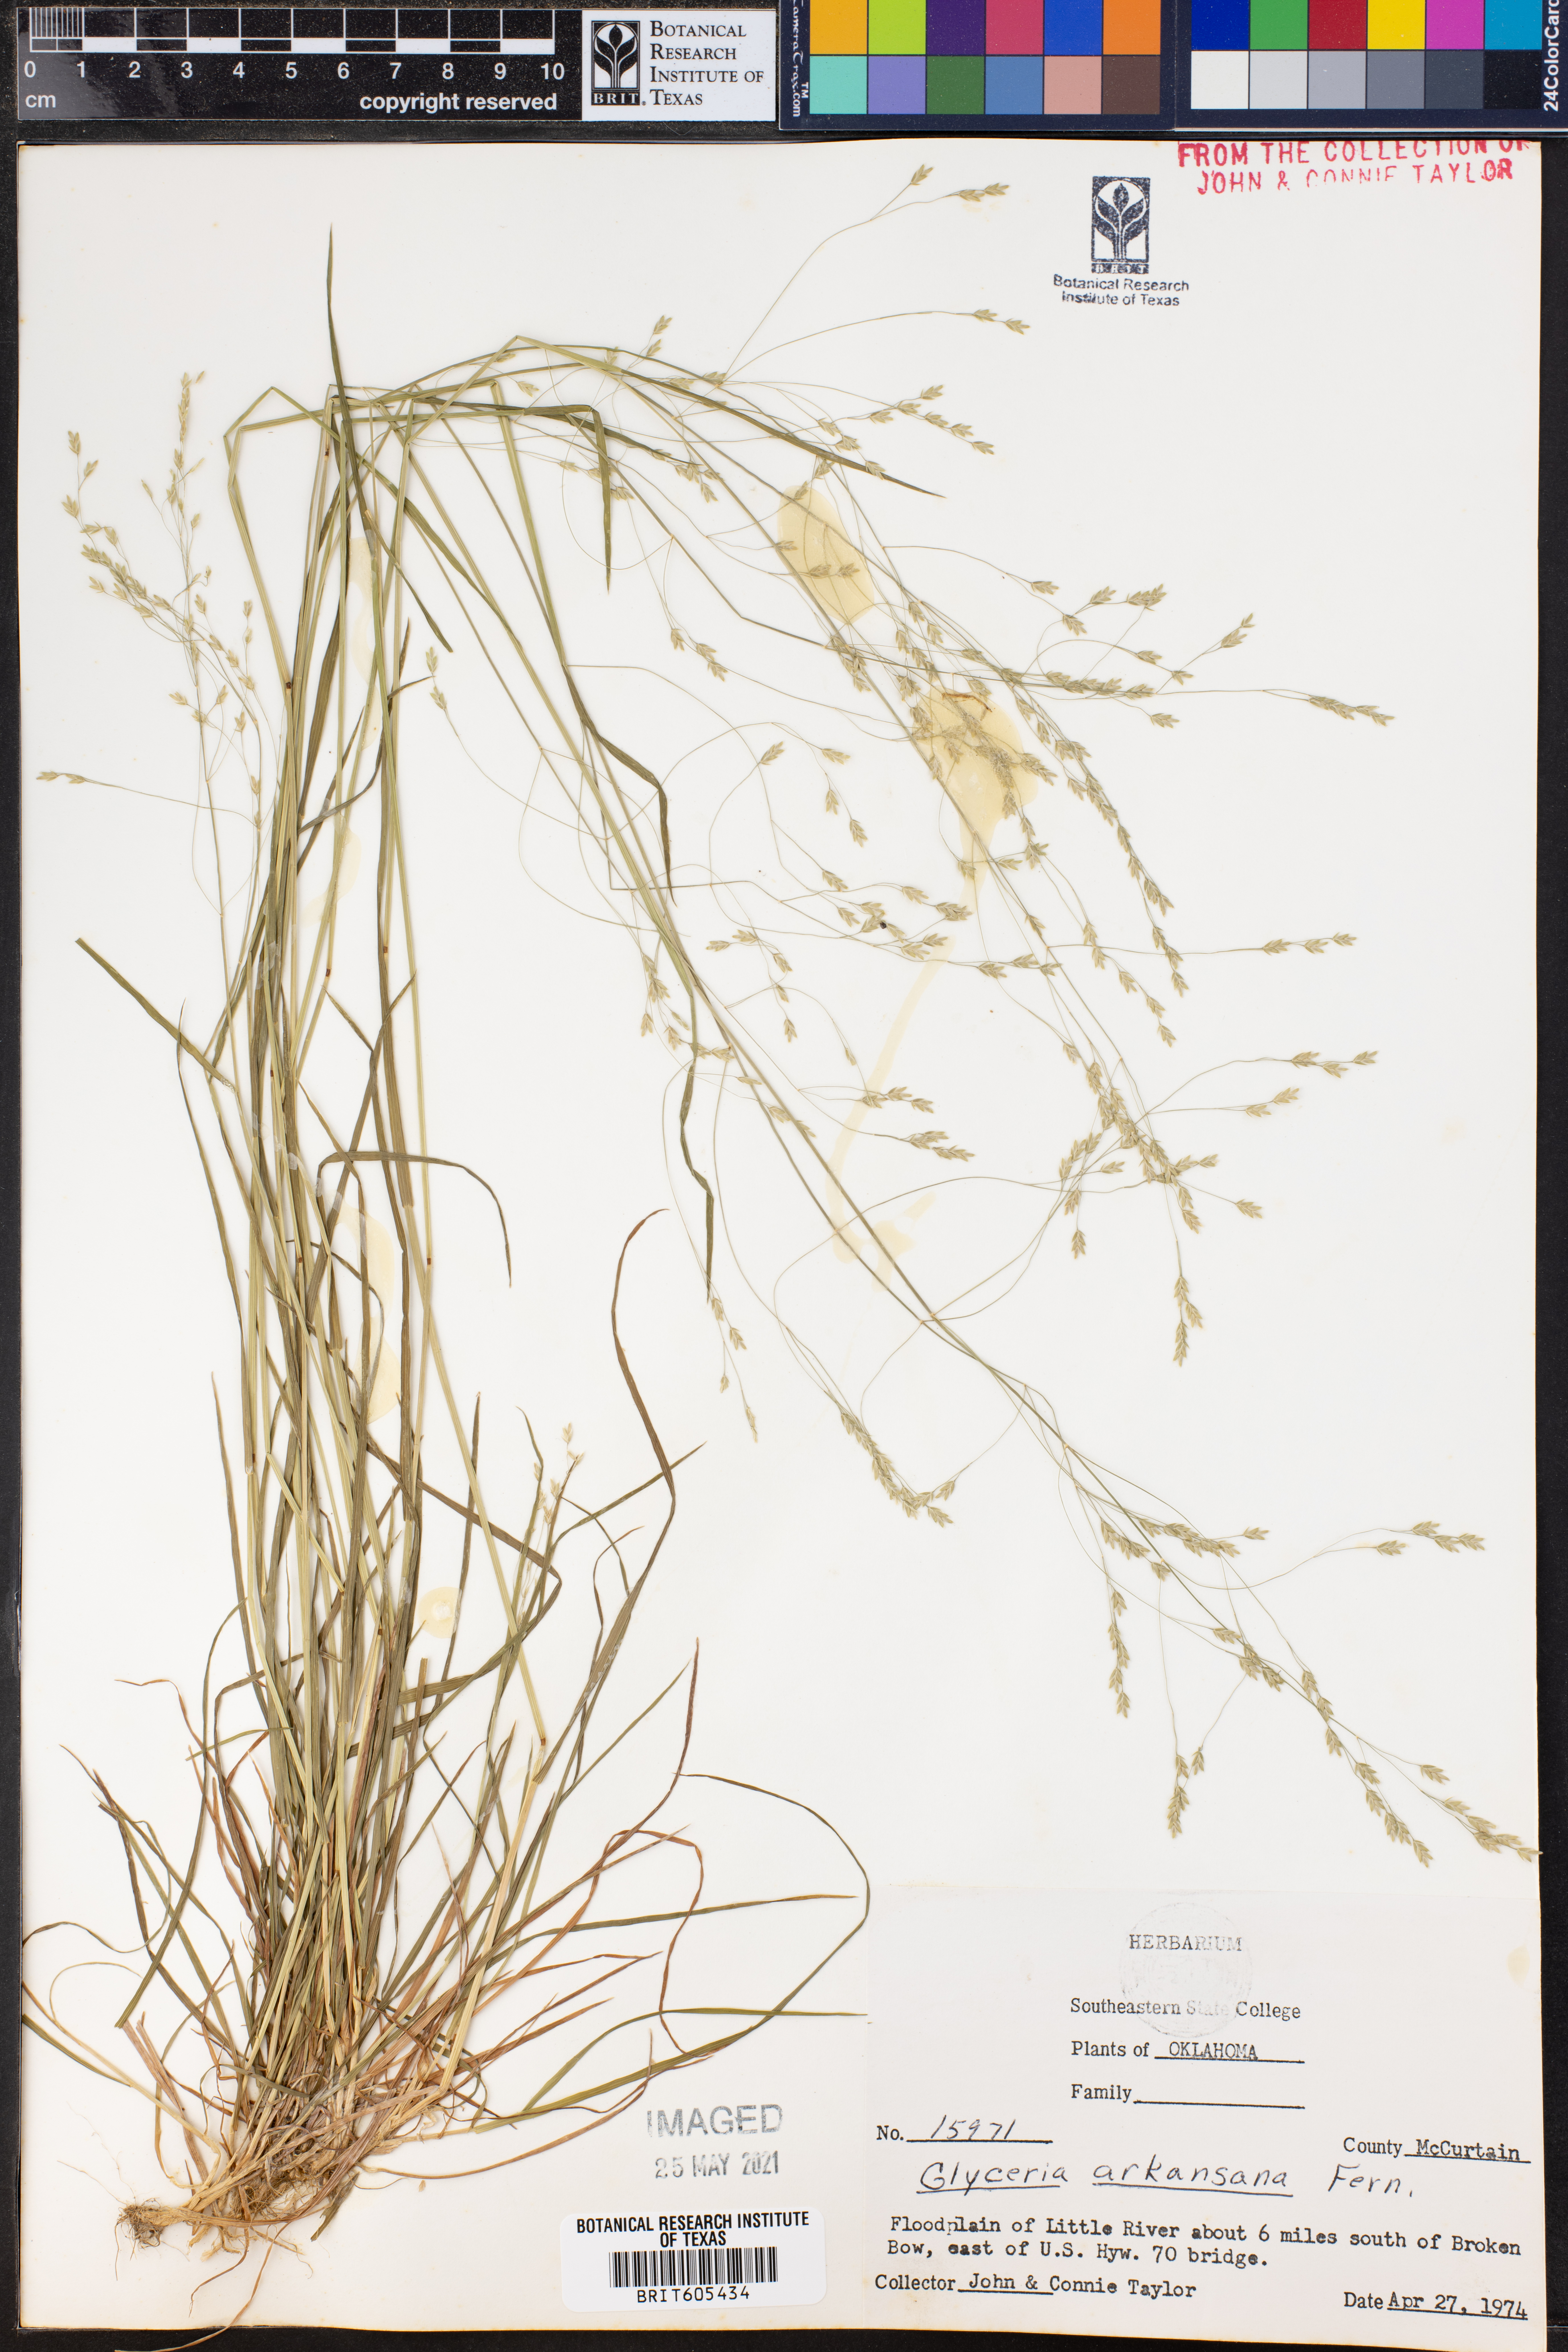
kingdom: Plantae
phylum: Tracheophyta
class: Liliopsida
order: Poales
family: Poaceae
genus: Glyceria
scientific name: Glyceria arkansana
